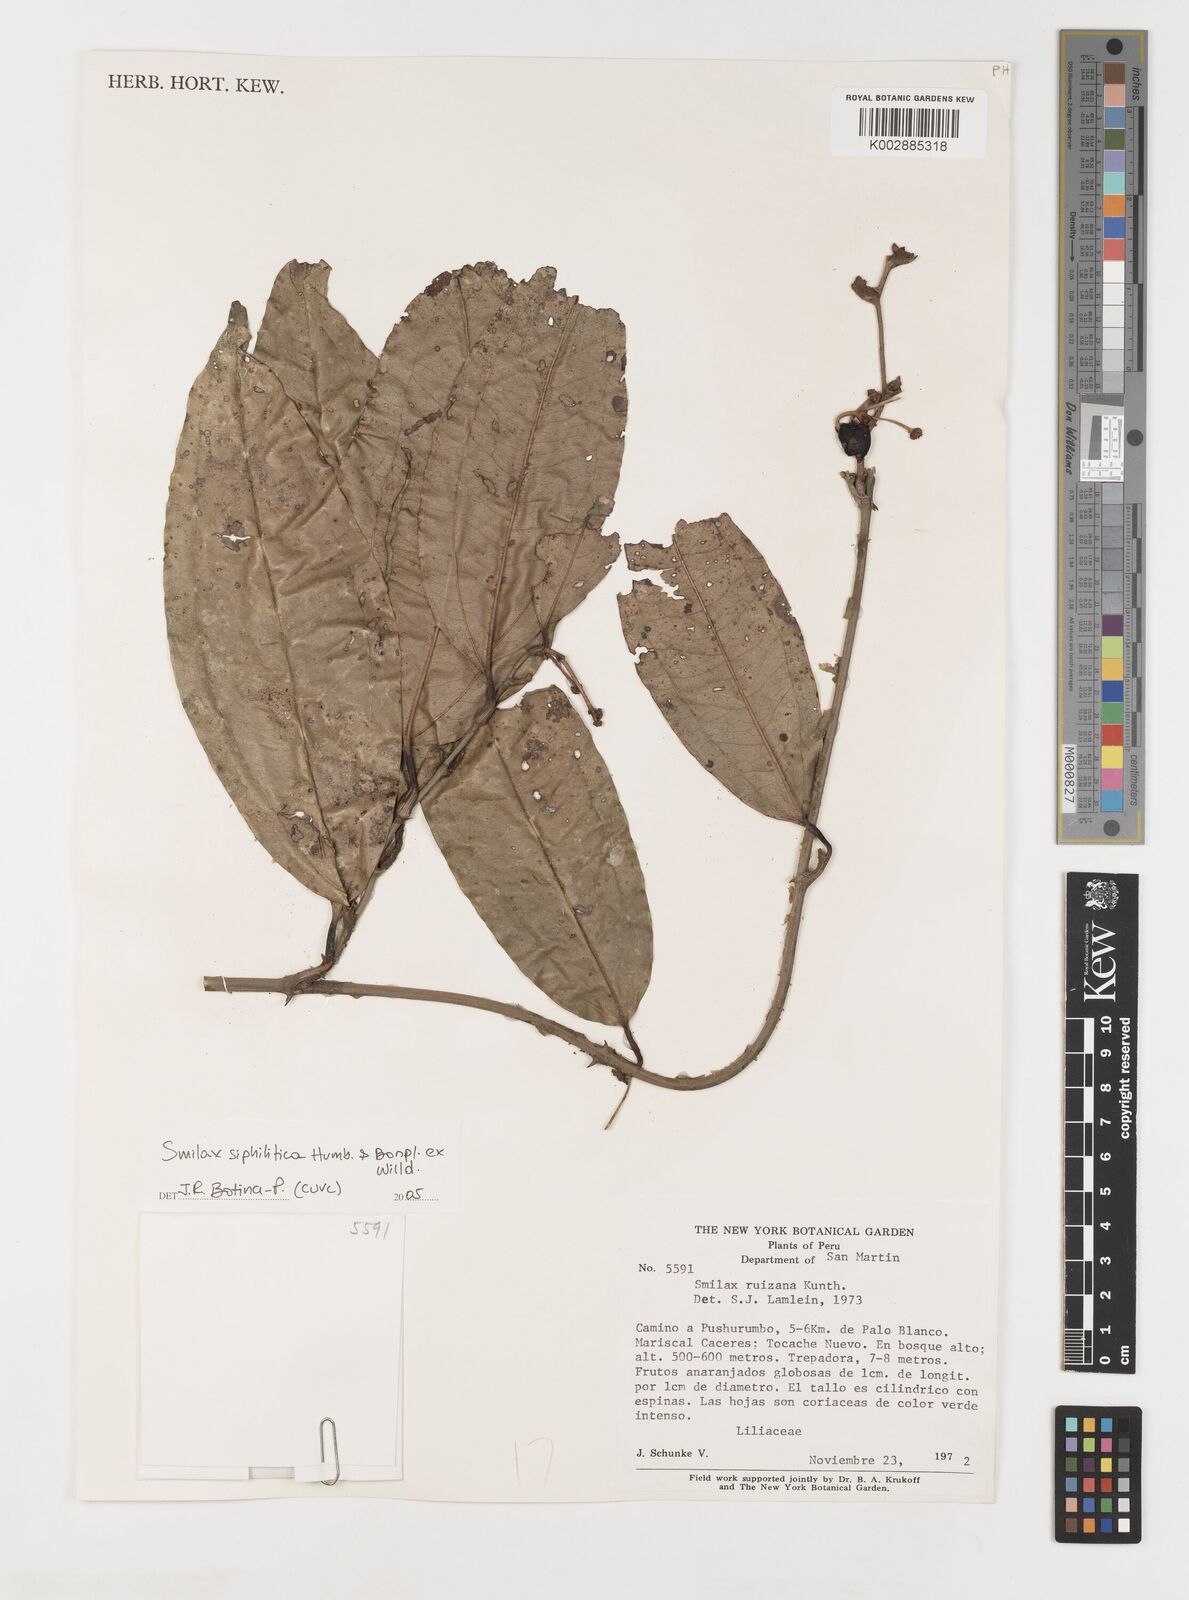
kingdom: Plantae
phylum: Tracheophyta
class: Liliopsida
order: Liliales
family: Smilacaceae
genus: Smilax
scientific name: Smilax
